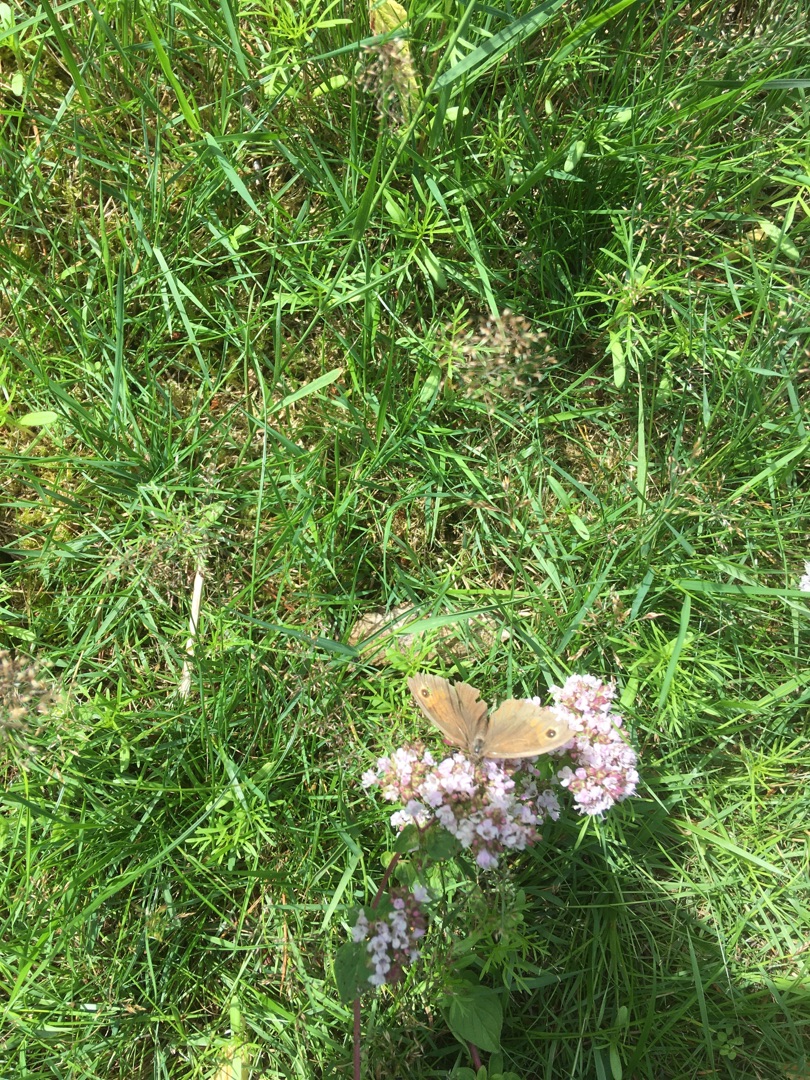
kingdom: Animalia
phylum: Arthropoda
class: Insecta
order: Lepidoptera
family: Nymphalidae
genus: Maniola
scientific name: Maniola jurtina
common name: Græsrandøje
